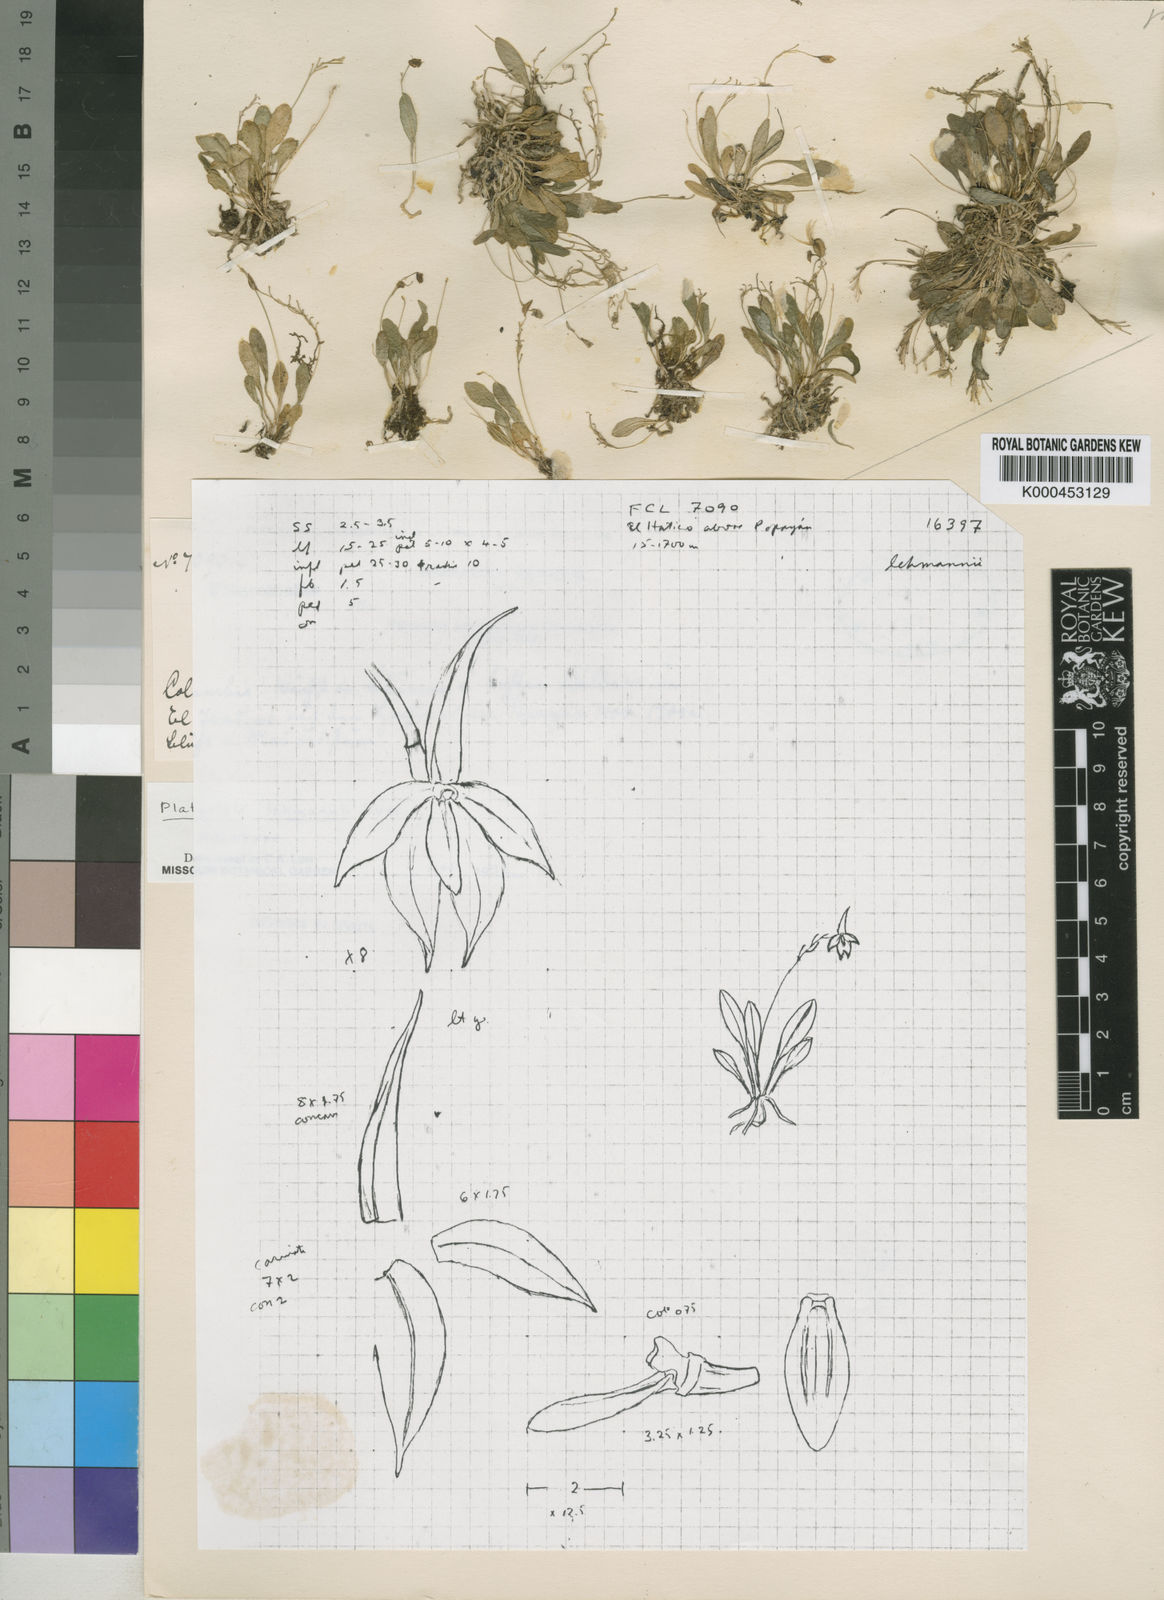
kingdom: Plantae
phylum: Tracheophyta
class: Liliopsida
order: Asparagales
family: Orchidaceae
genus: Platystele
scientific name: Platystele lehmannii
